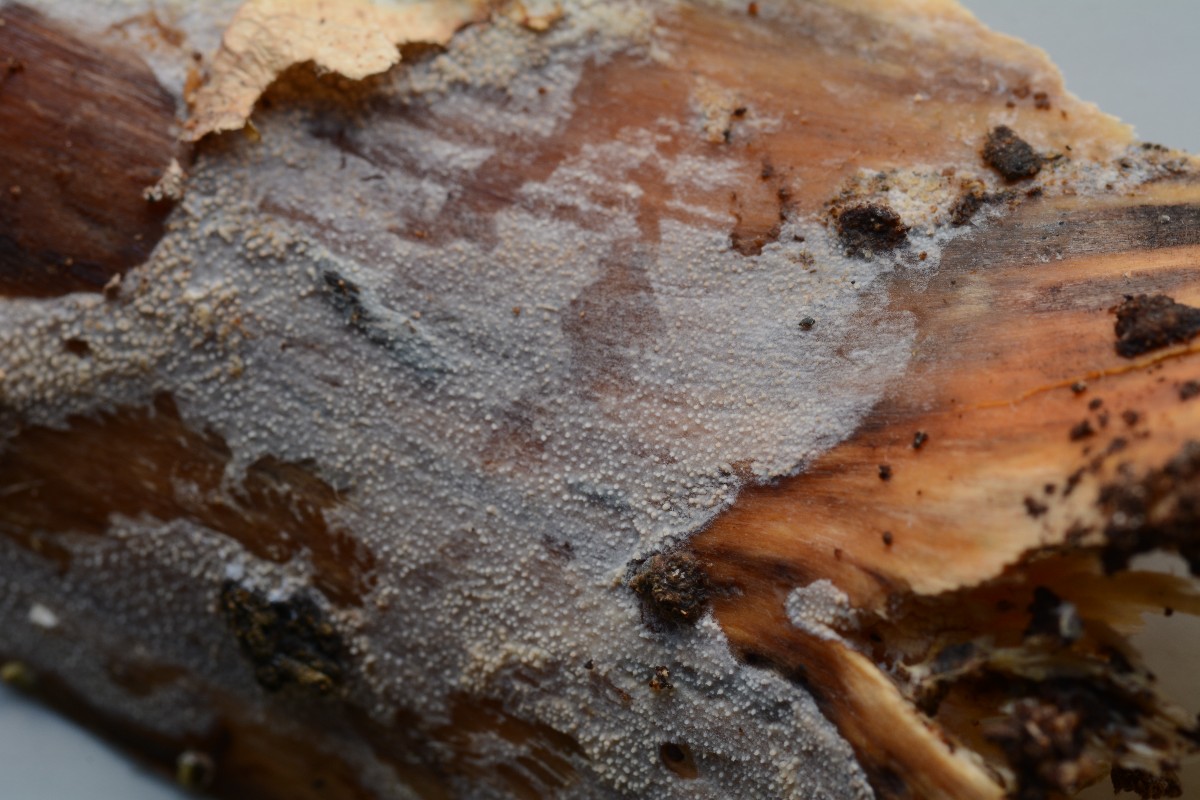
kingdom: Fungi
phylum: Basidiomycota
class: Agaricomycetes
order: Hymenochaetales
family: Rickenellaceae
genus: Resinicium
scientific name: Resinicium bicolor
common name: almindelig vokstand
